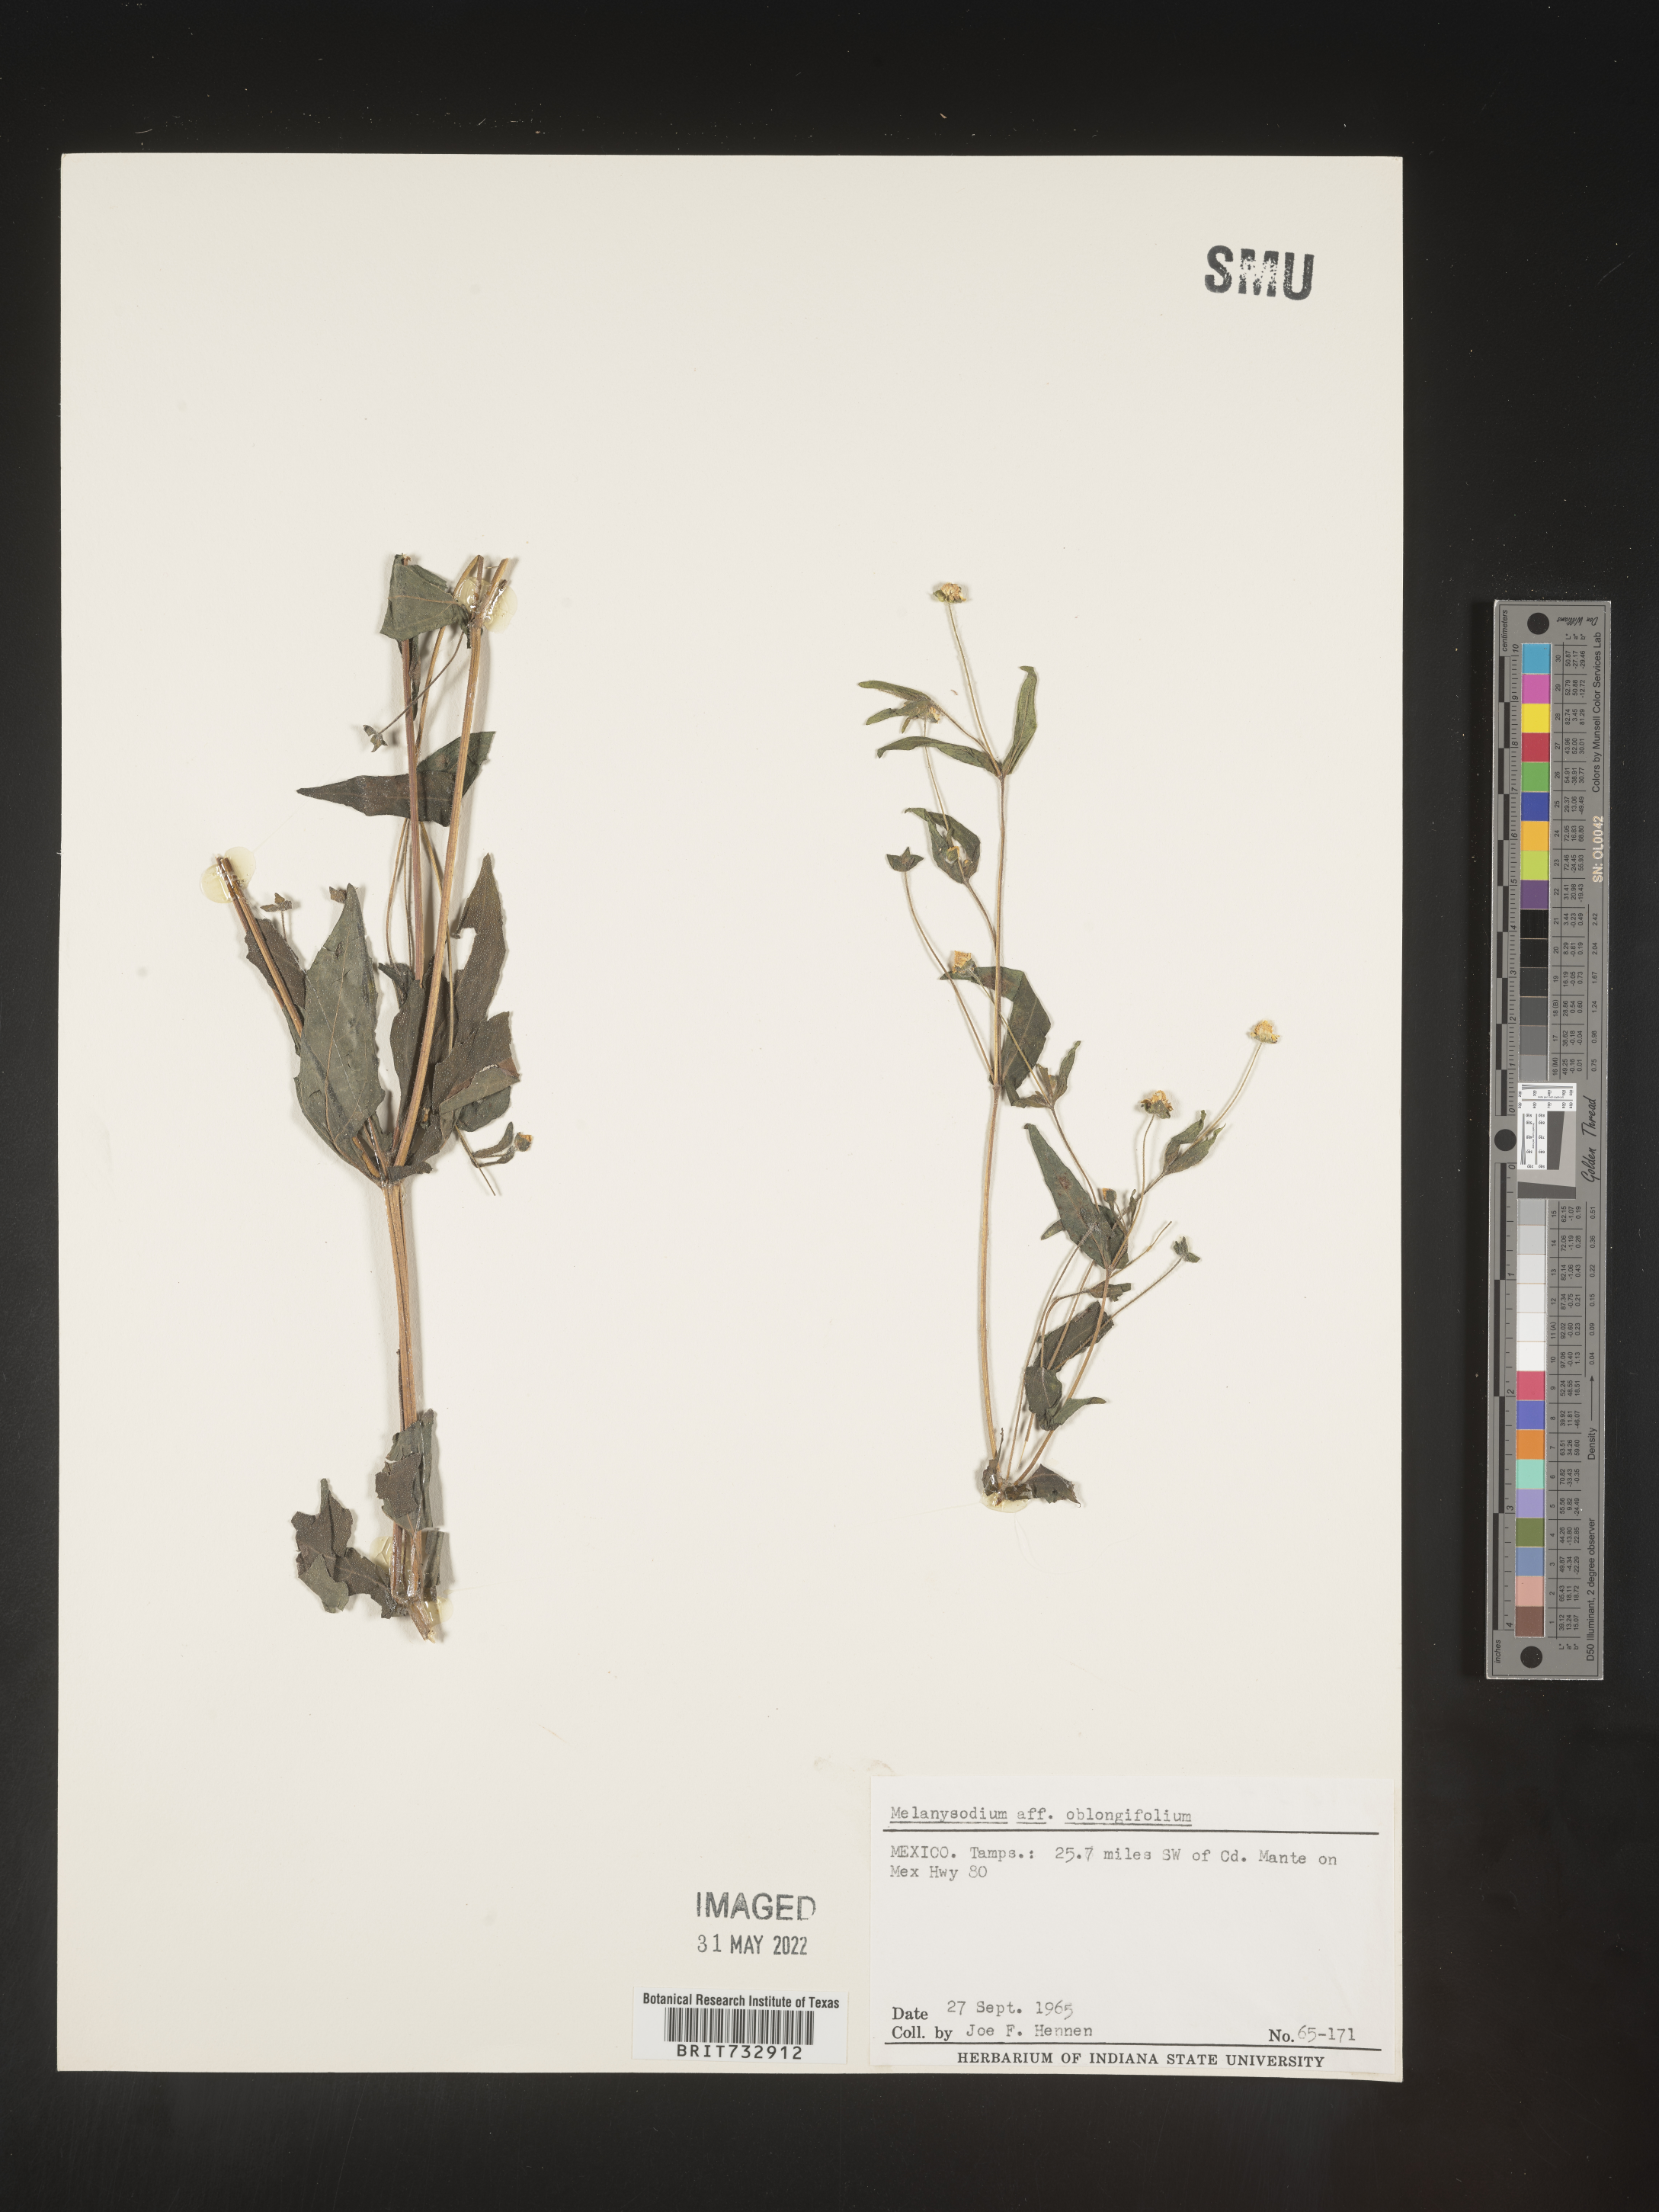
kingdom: Plantae
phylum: Tracheophyta
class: Magnoliopsida
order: Asterales
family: Asteraceae
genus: Melampodium
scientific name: Melampodium
